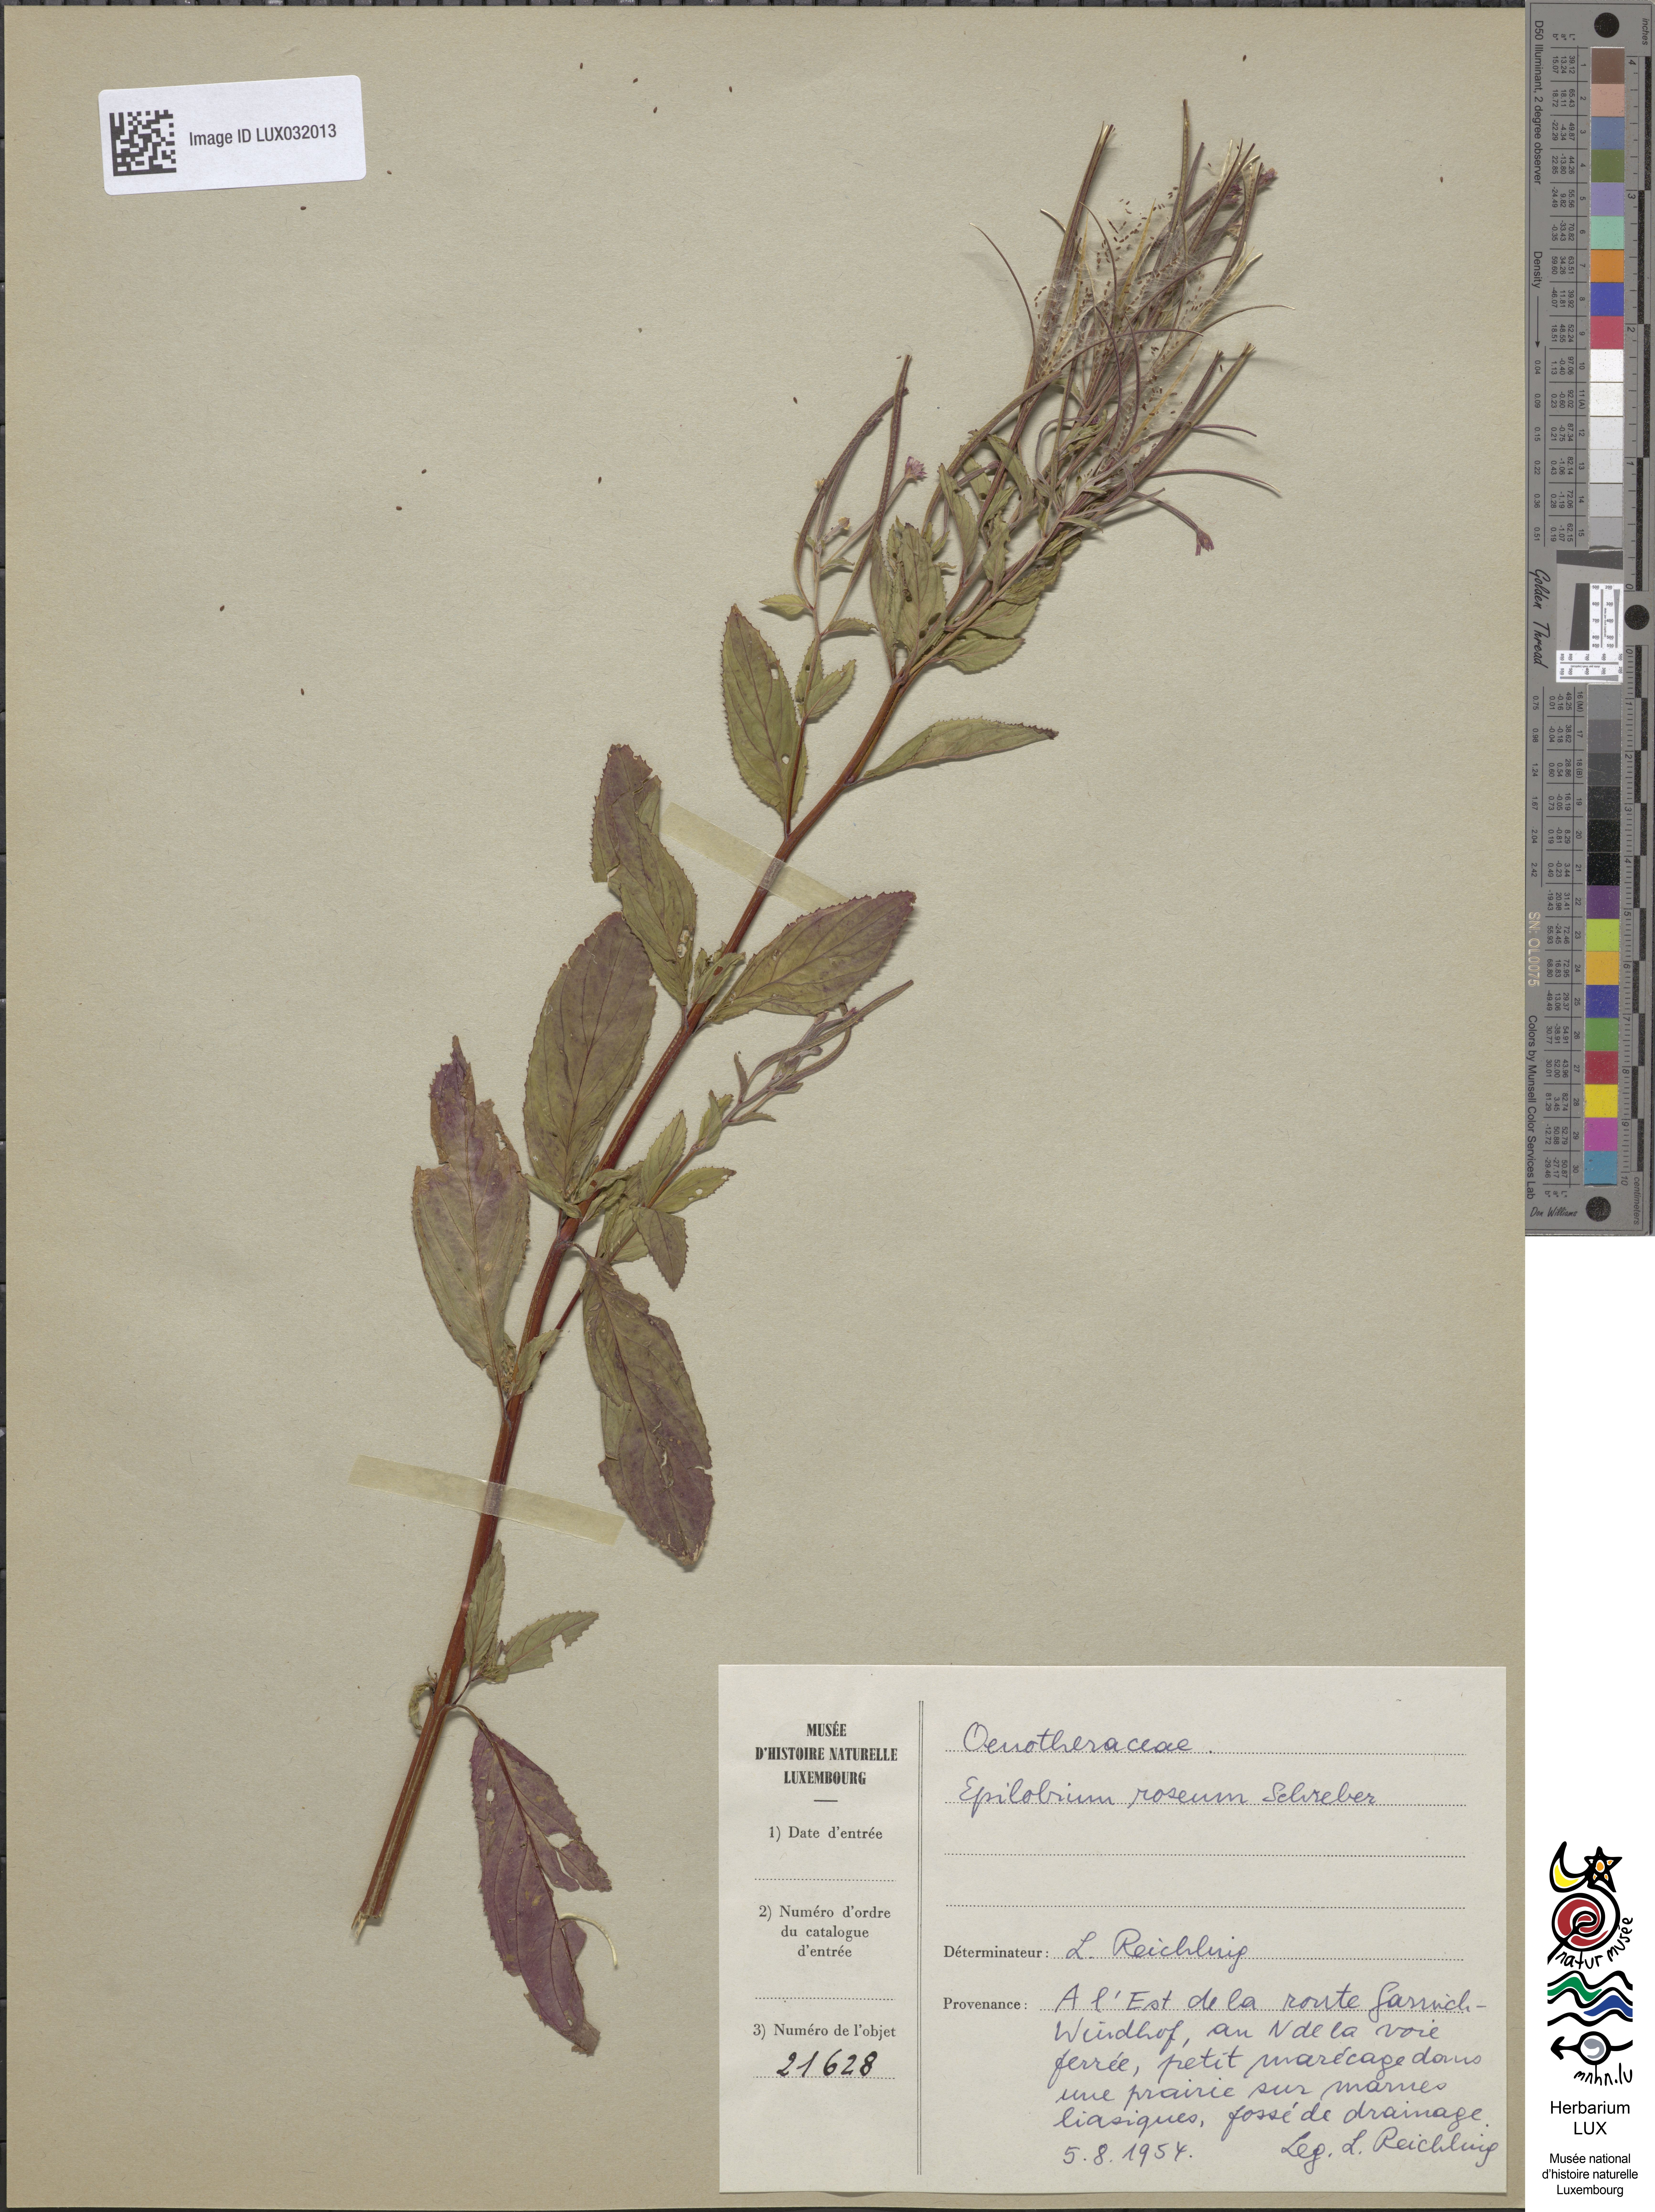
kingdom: Plantae
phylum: Tracheophyta
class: Magnoliopsida
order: Myrtales
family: Onagraceae
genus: Epilobium
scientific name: Epilobium roseum
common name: Pale willowherb
